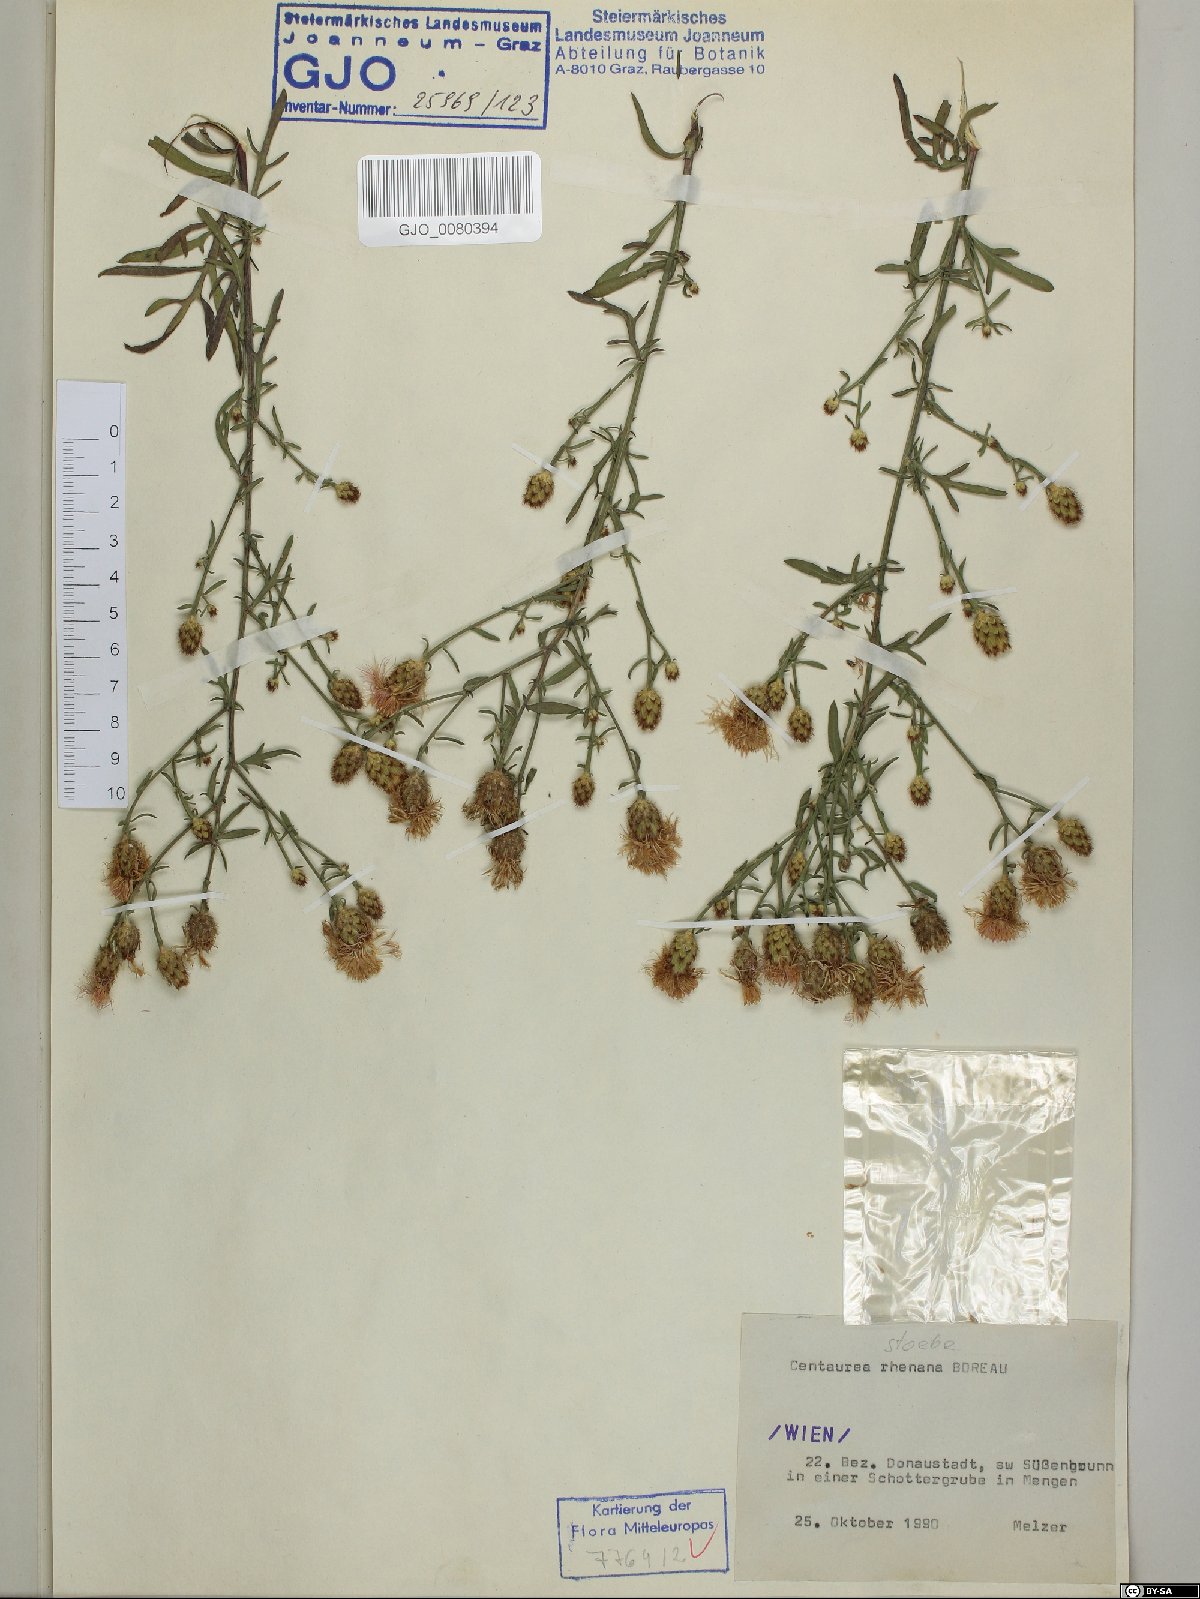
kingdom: Plantae
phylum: Tracheophyta
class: Magnoliopsida
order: Asterales
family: Asteraceae
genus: Centaurea
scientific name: Centaurea stoebe
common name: Spotted knapweed
